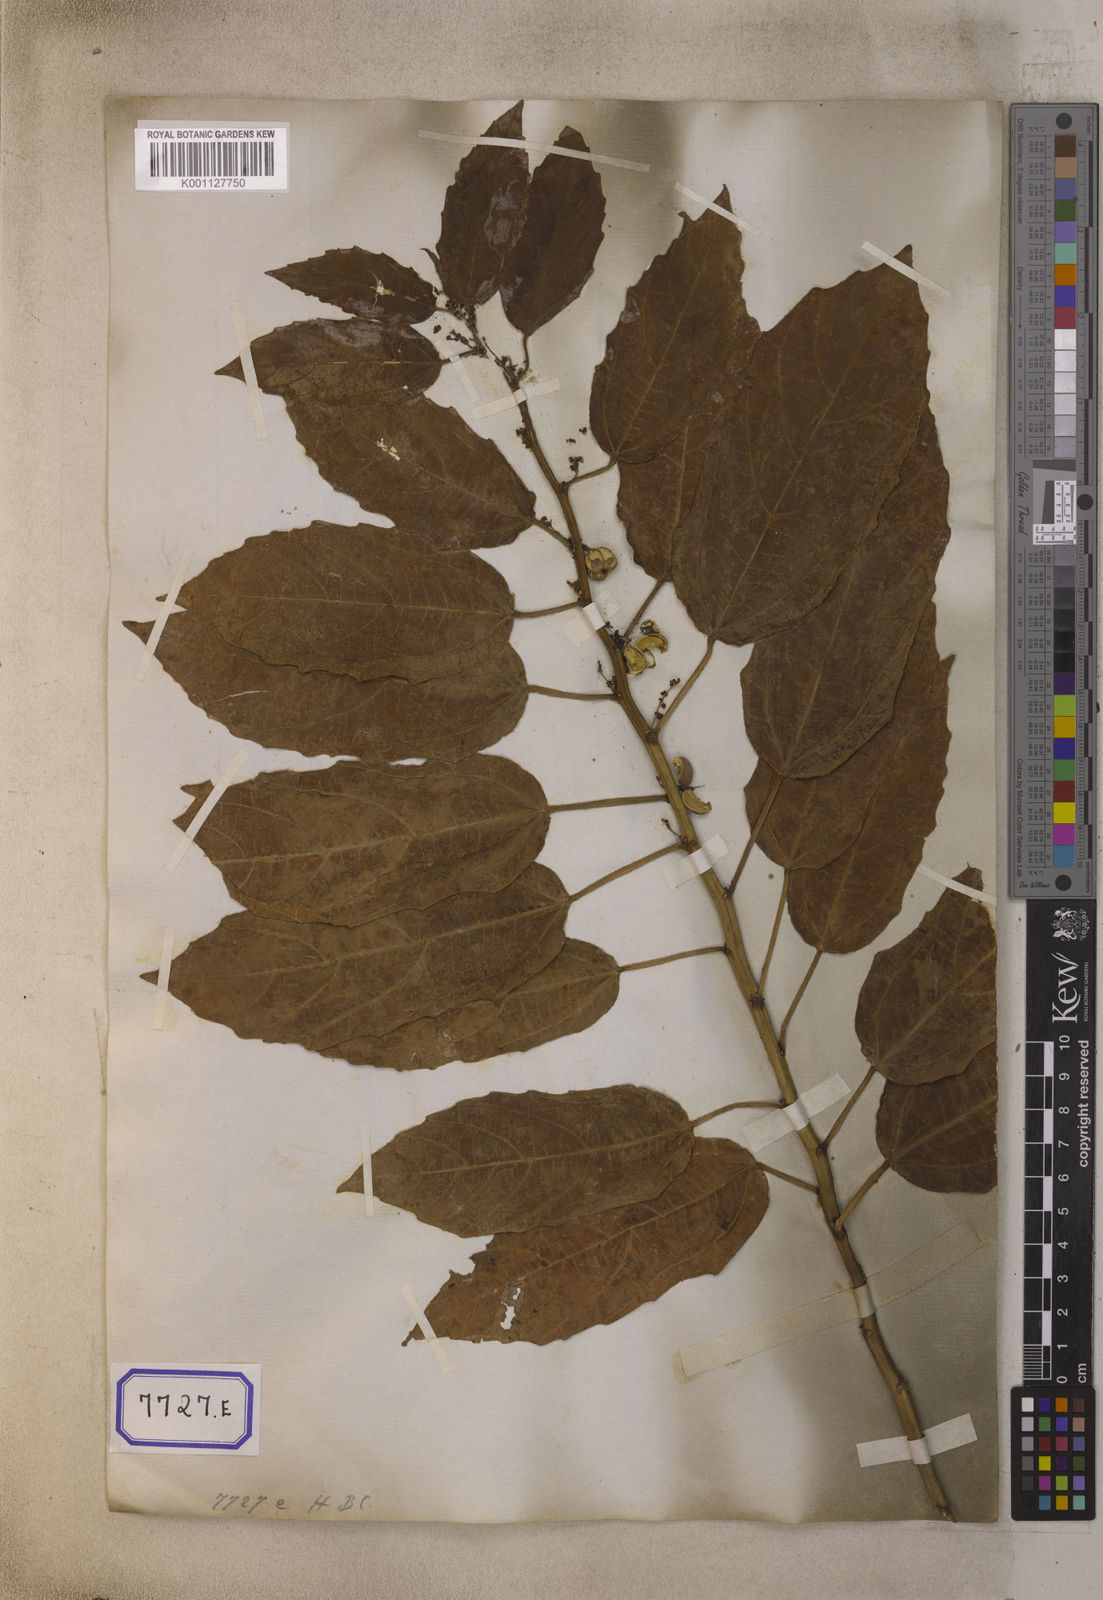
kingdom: Plantae
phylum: Tracheophyta
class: Magnoliopsida
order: Malpighiales
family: Euphorbiaceae
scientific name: Euphorbiaceae
